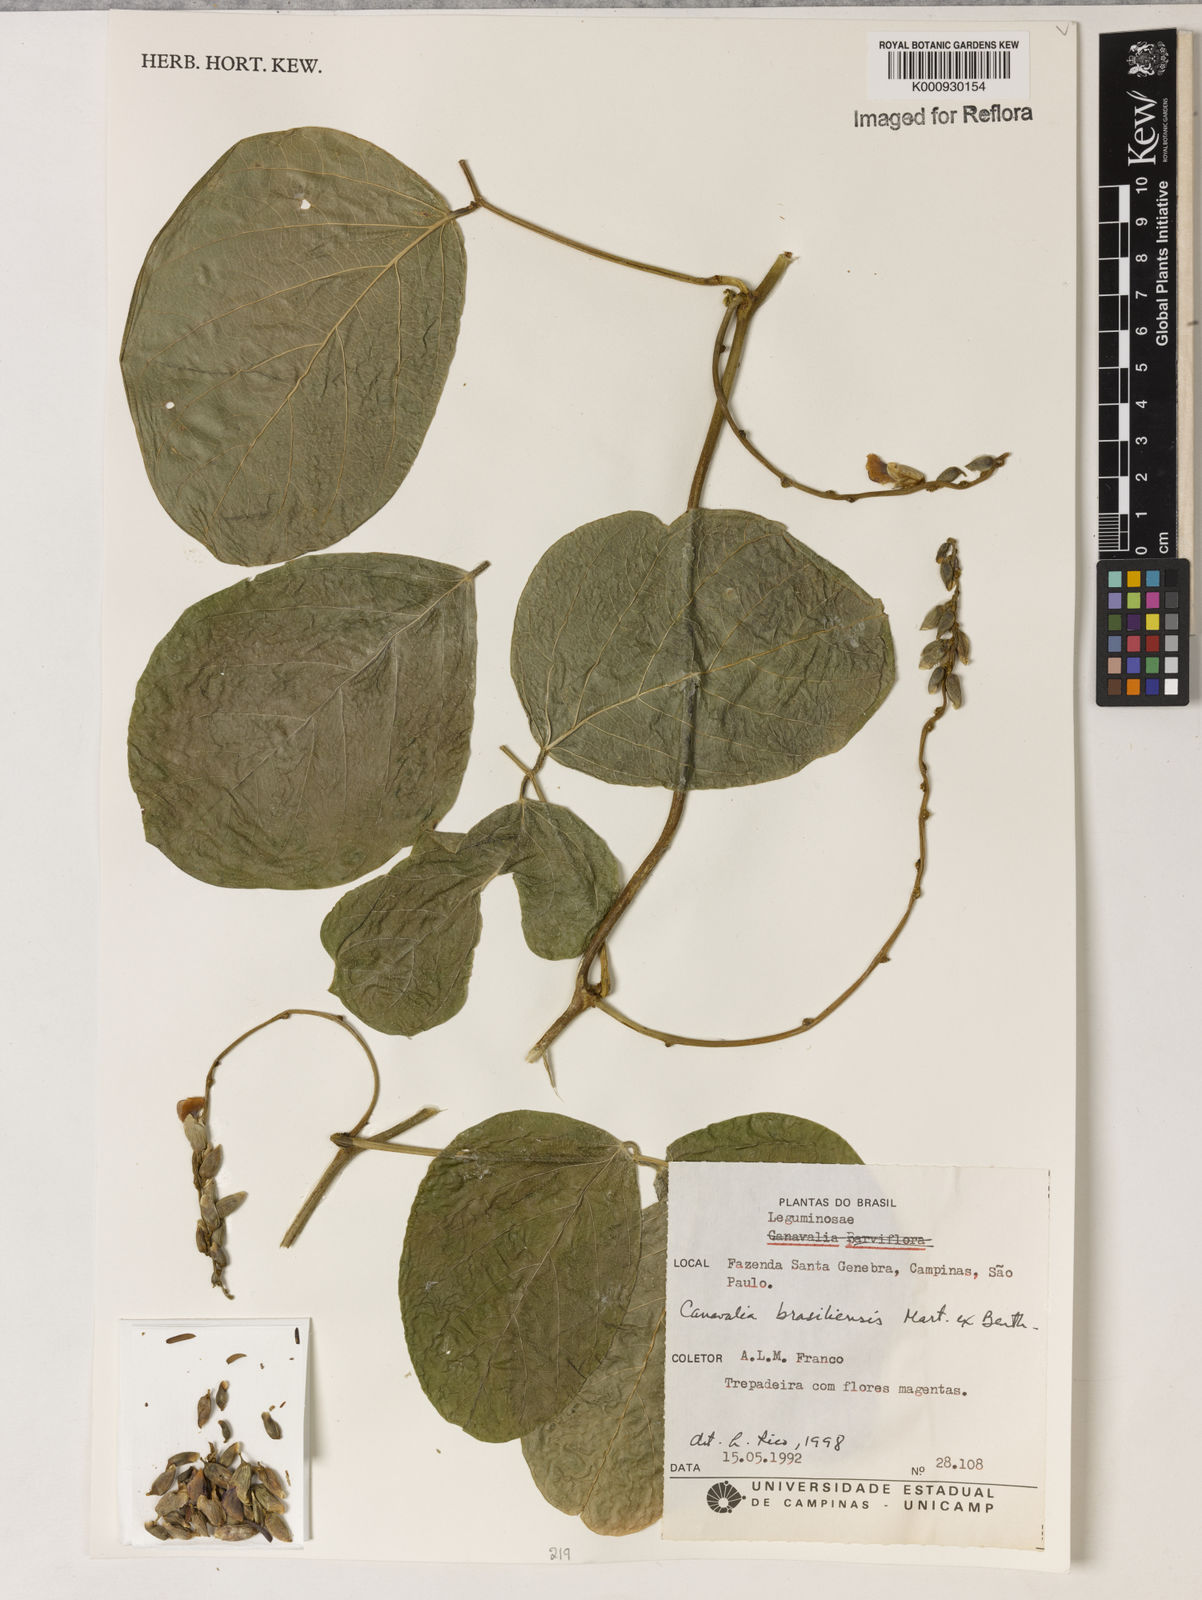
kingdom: Plantae
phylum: Tracheophyta
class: Magnoliopsida
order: Fabales
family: Fabaceae
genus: Canavalia
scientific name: Canavalia brasiliensis
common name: Barbicou-bean
